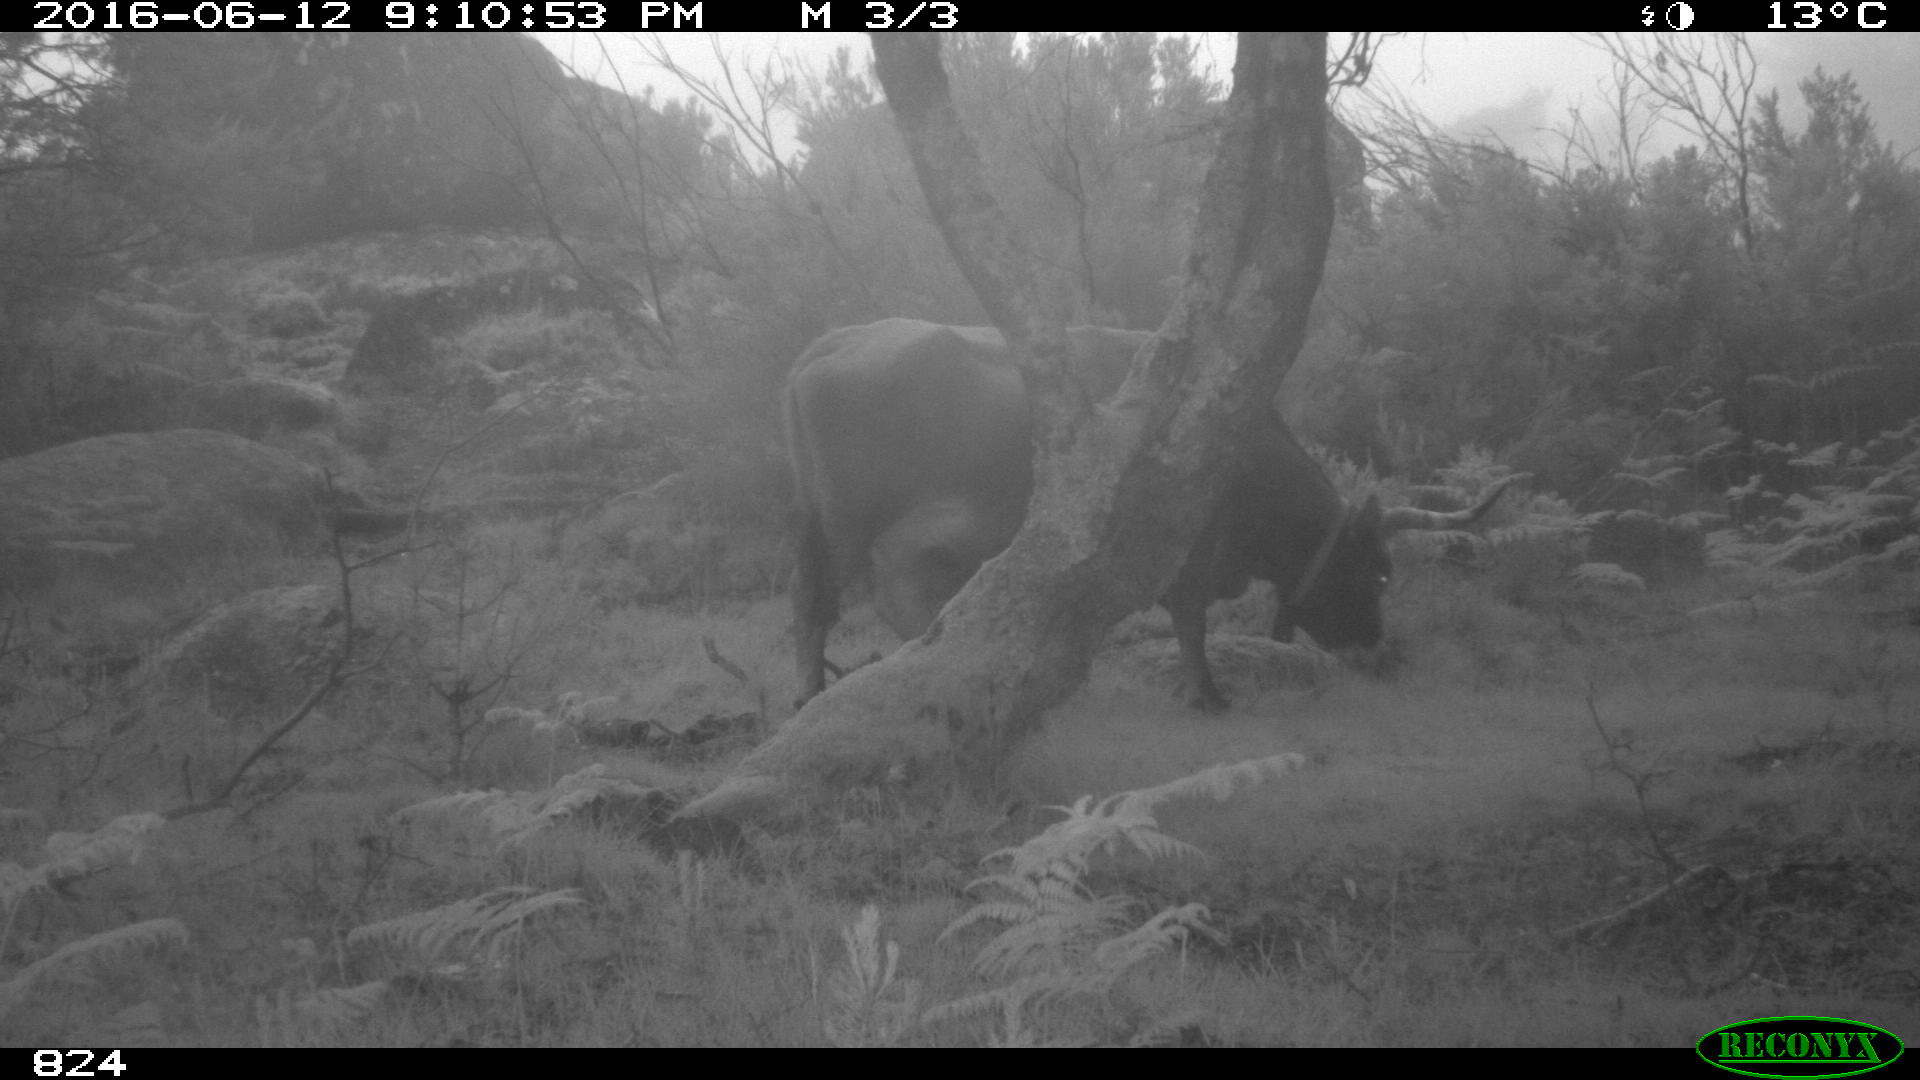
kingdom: Animalia
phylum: Chordata
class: Mammalia
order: Artiodactyla
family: Bovidae
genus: Bos
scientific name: Bos taurus
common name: Domesticated cattle
